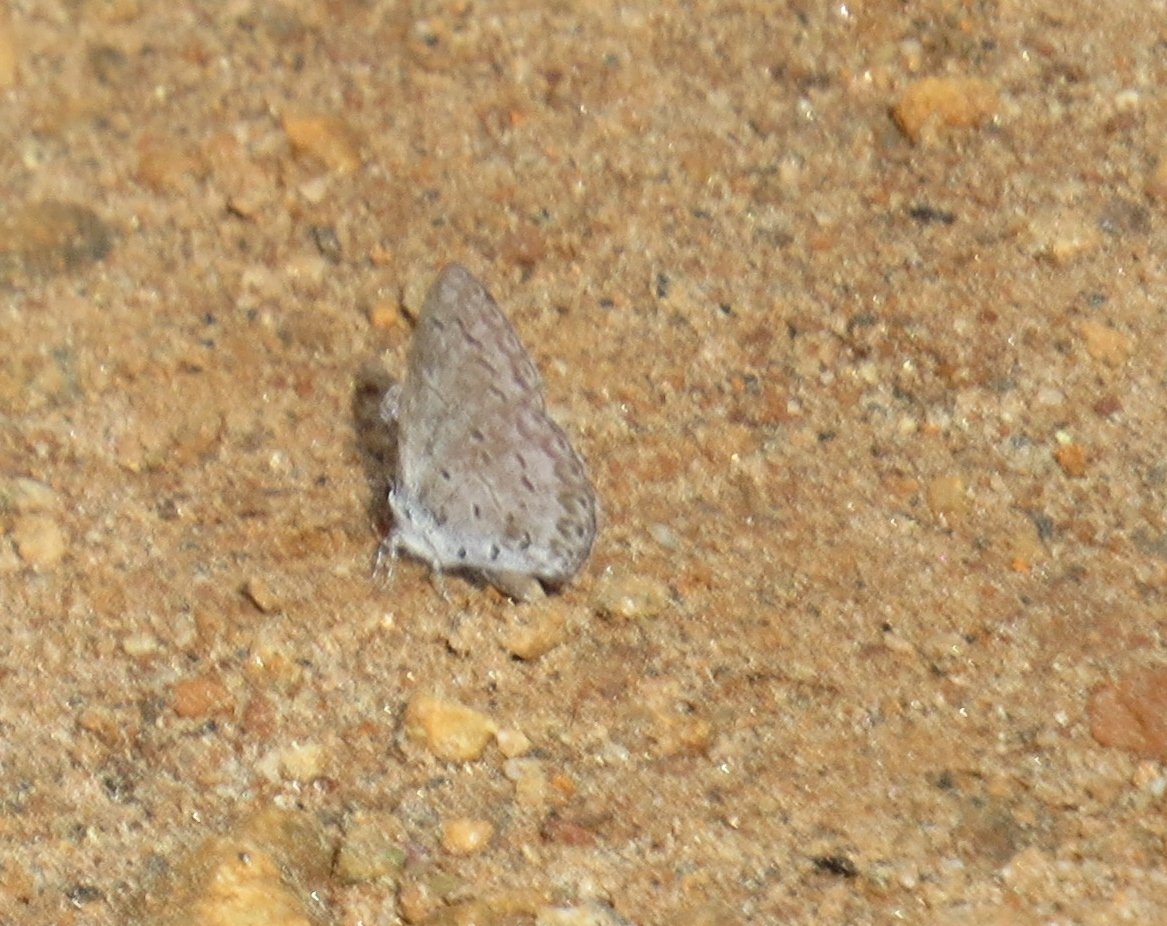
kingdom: Animalia
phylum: Arthropoda
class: Insecta
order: Lepidoptera
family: Lycaenidae
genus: Celastrina
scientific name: Celastrina ladon
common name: Spring Azure
